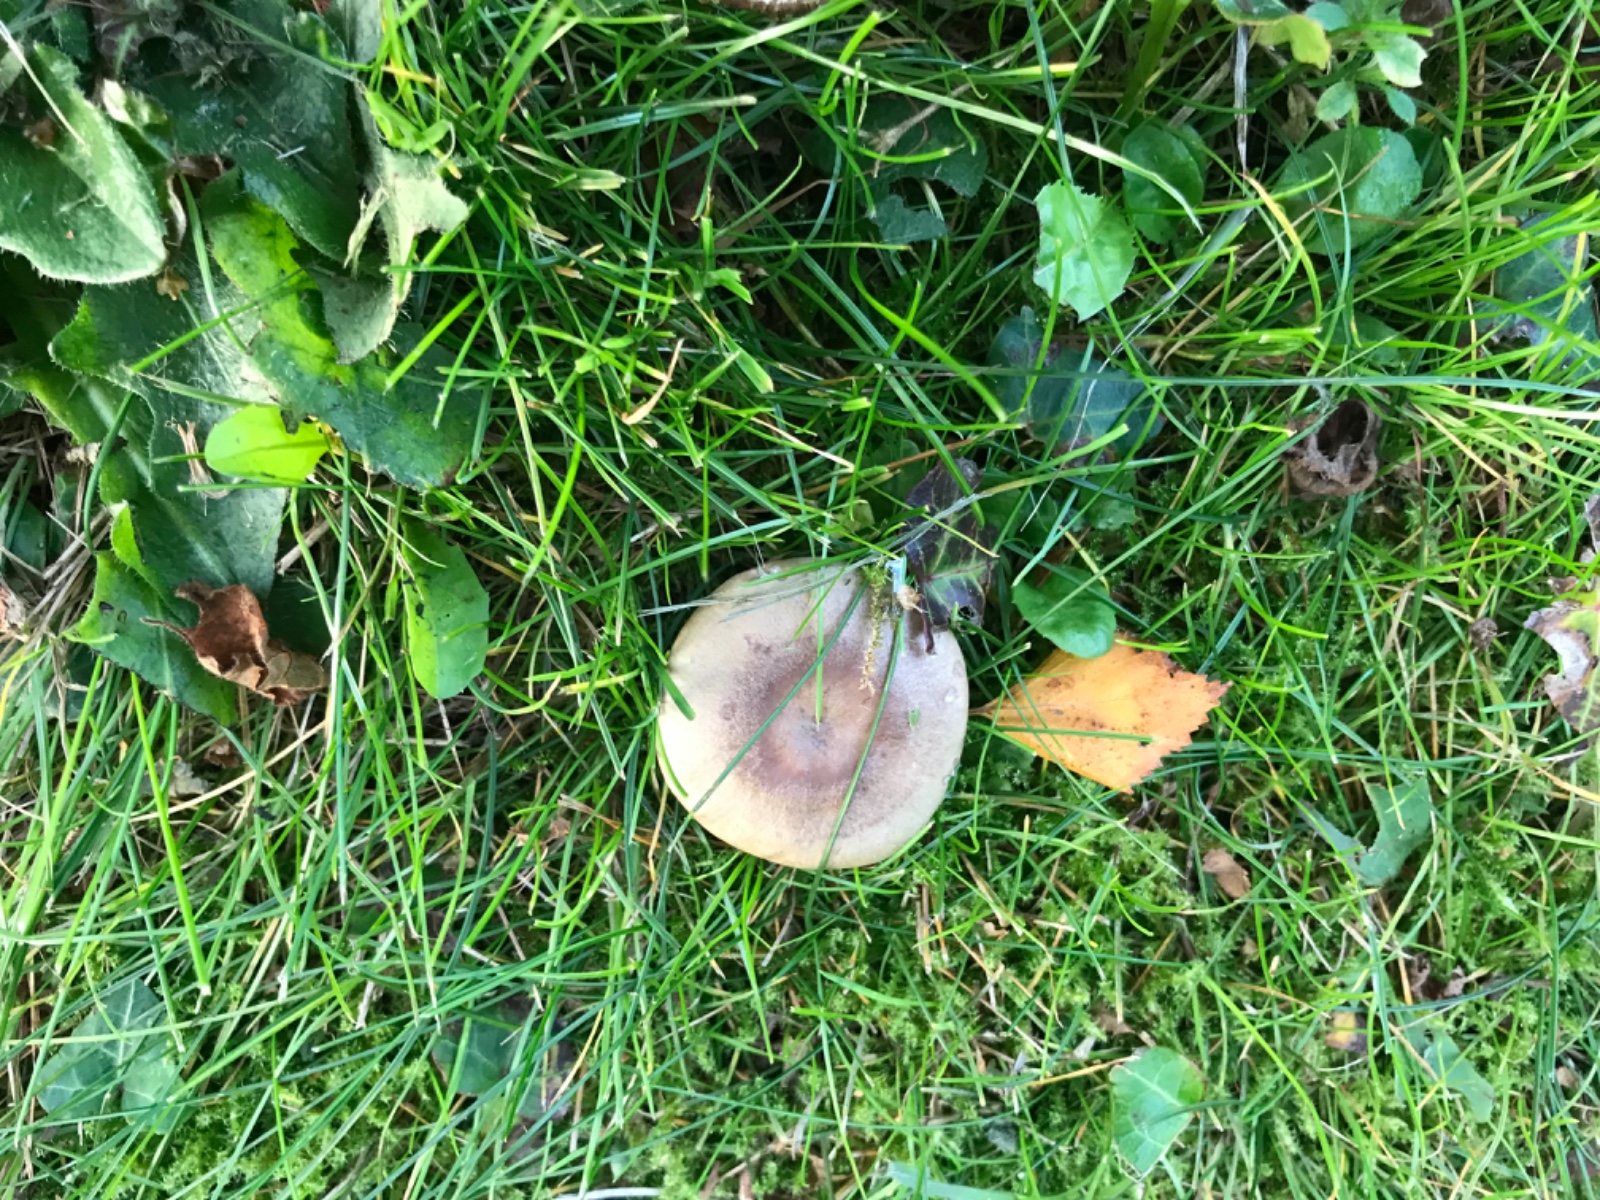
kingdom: Fungi
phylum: Basidiomycota
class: Agaricomycetes
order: Russulales
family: Russulaceae
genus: Lactarius
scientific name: Lactarius pyrogalus
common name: hassel-mælkehat
